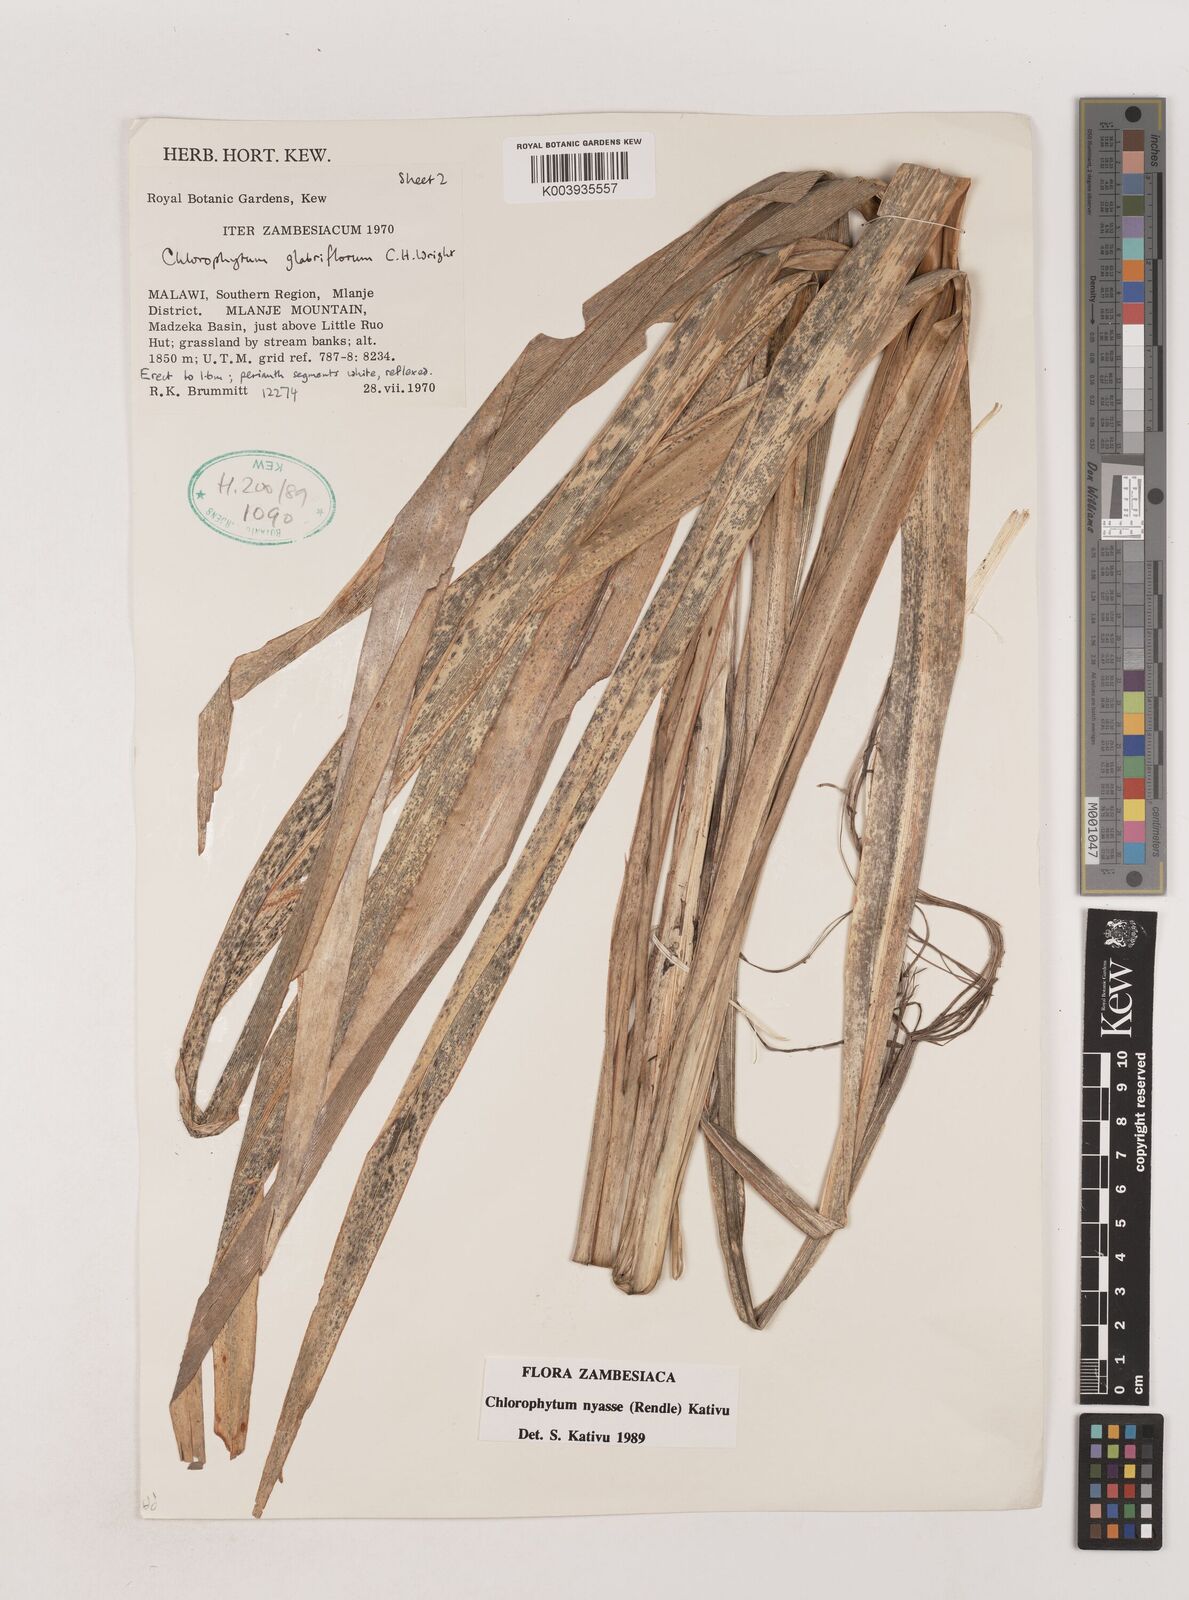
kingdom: Plantae
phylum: Tracheophyta
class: Liliopsida
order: Asparagales
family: Asparagaceae
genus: Chlorophytum
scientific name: Chlorophytum nyasae
